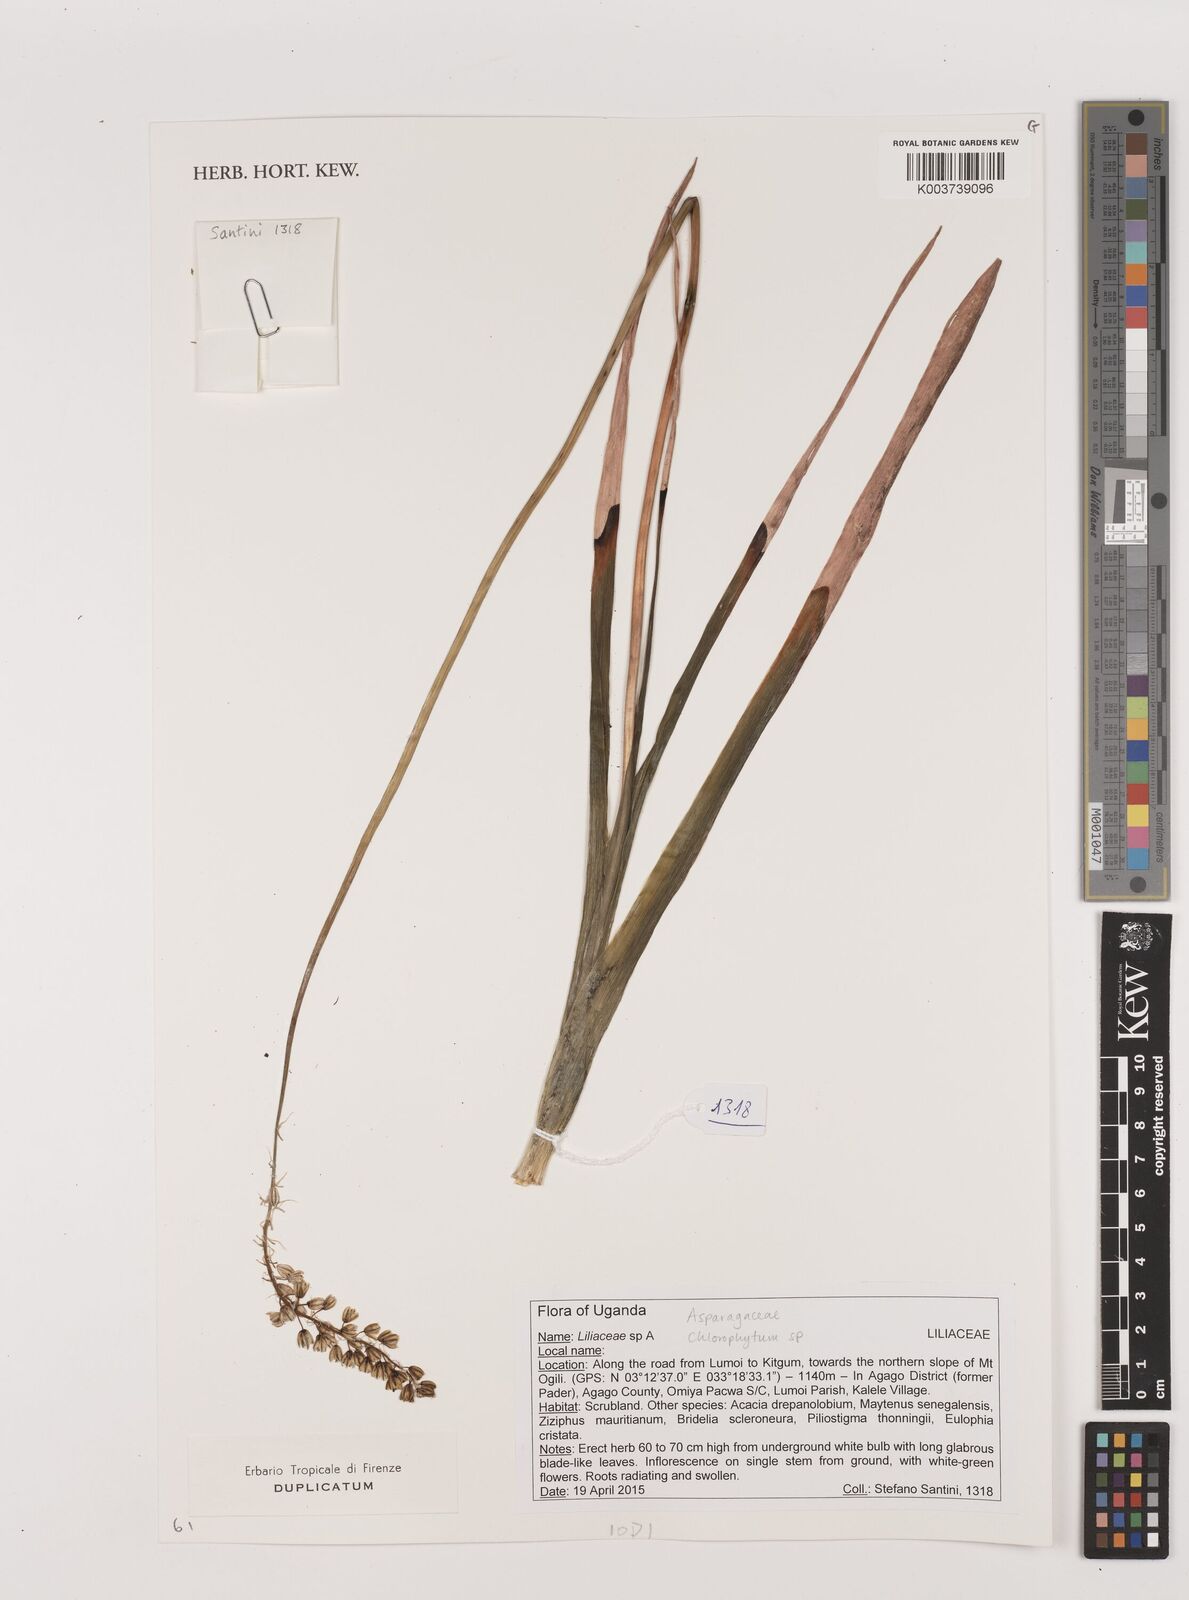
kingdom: Plantae
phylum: Tracheophyta
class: Liliopsida
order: Asparagales
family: Asparagaceae
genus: Chlorophytum
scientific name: Chlorophytum
